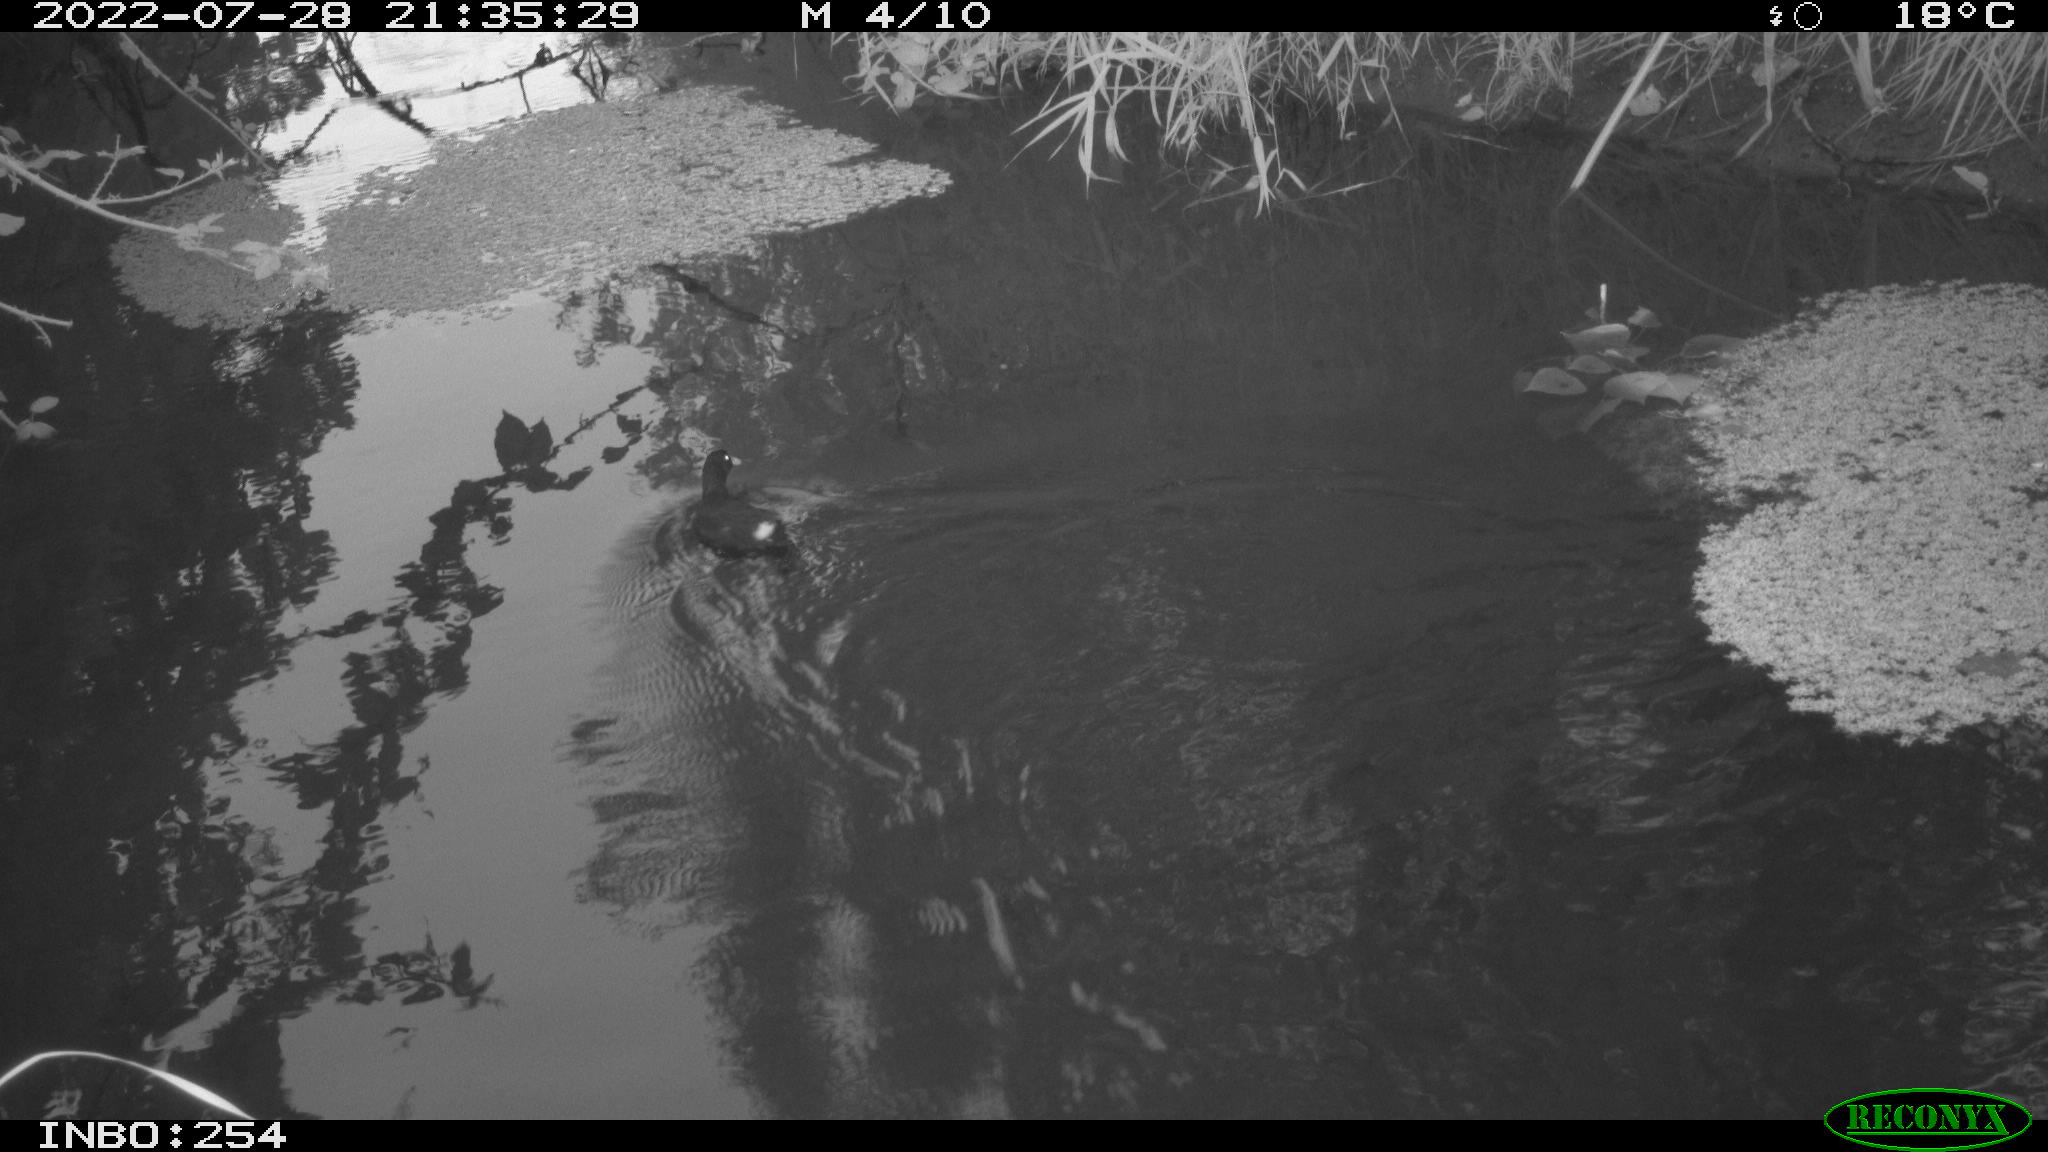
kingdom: Animalia
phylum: Chordata
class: Aves
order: Gruiformes
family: Rallidae
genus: Gallinula
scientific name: Gallinula chloropus
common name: Common moorhen
